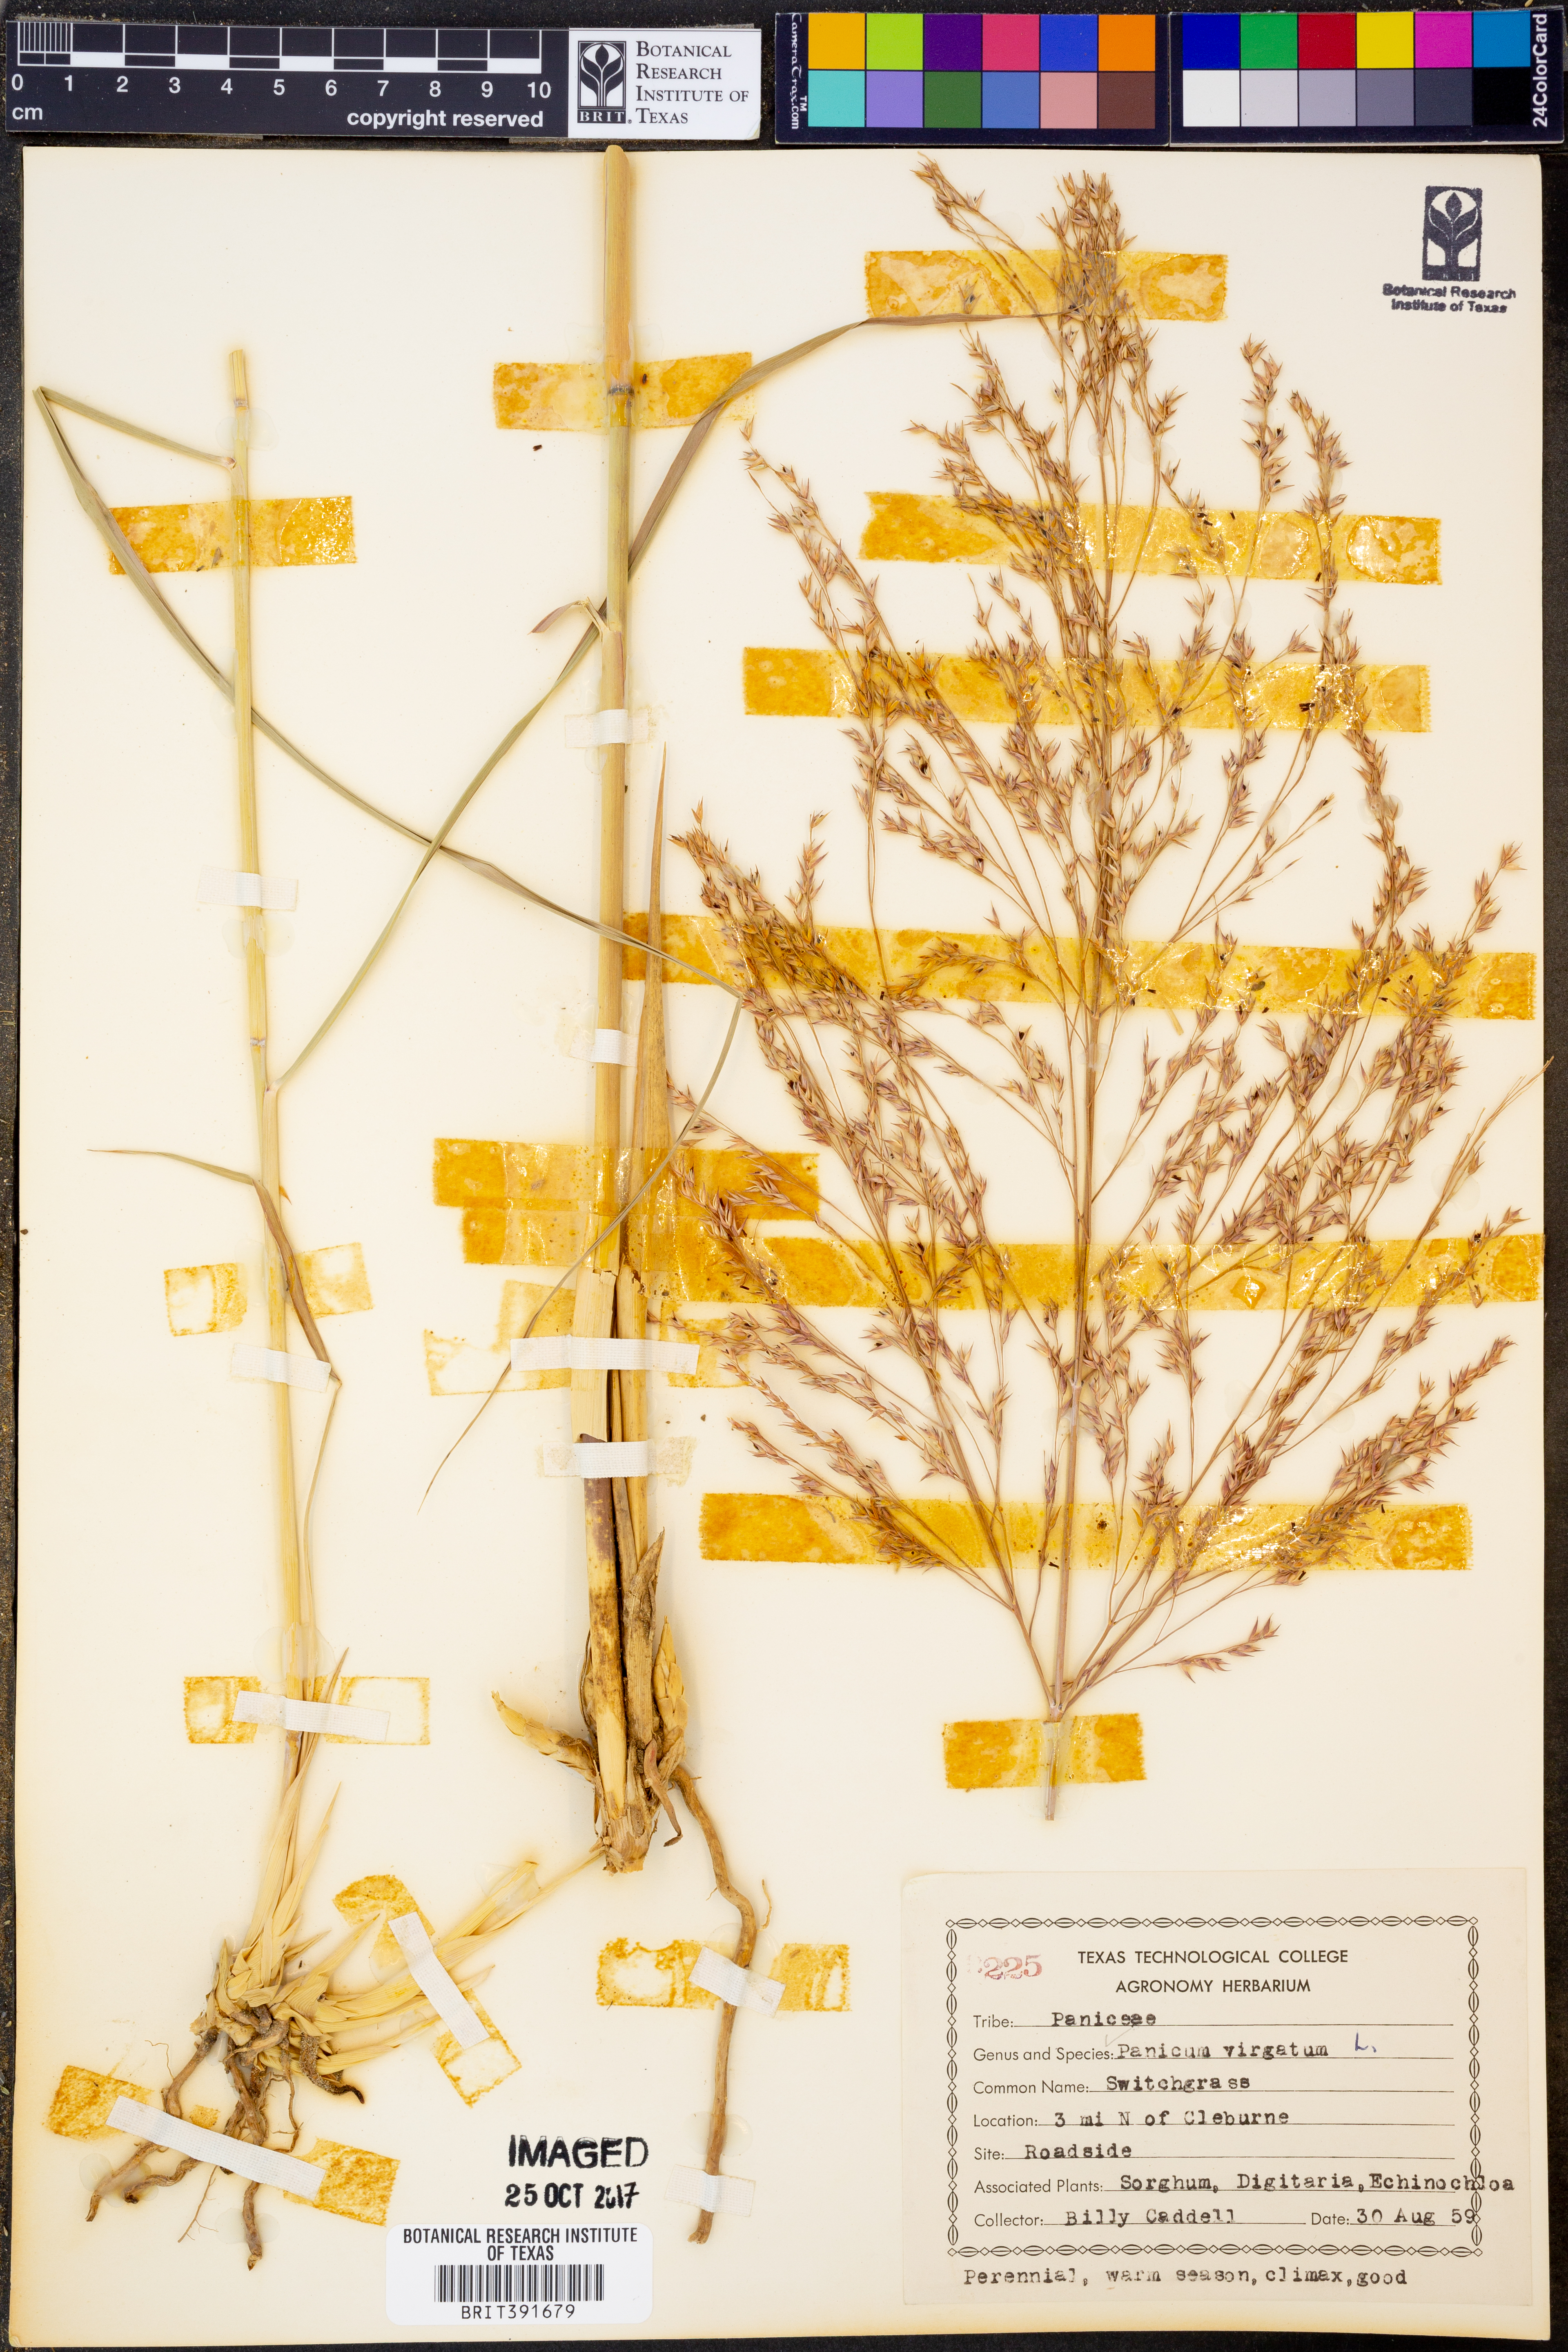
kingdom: Plantae
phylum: Tracheophyta
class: Liliopsida
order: Poales
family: Poaceae
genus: Panicum
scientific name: Panicum virgatum
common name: Switchgrass
